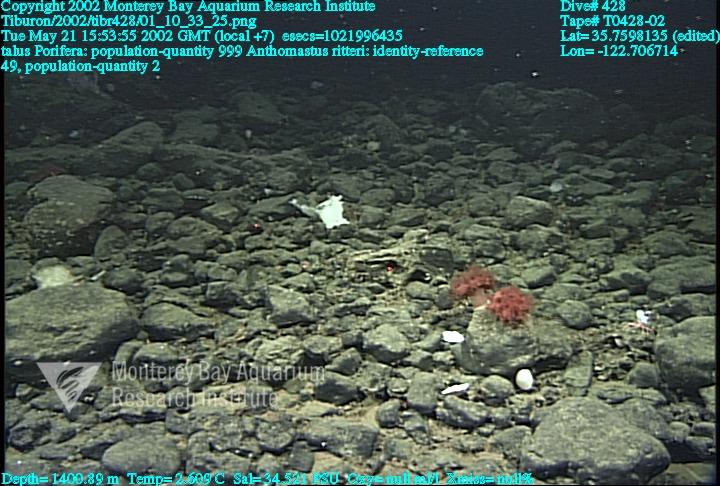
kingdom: Animalia
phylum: Porifera
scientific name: Porifera
